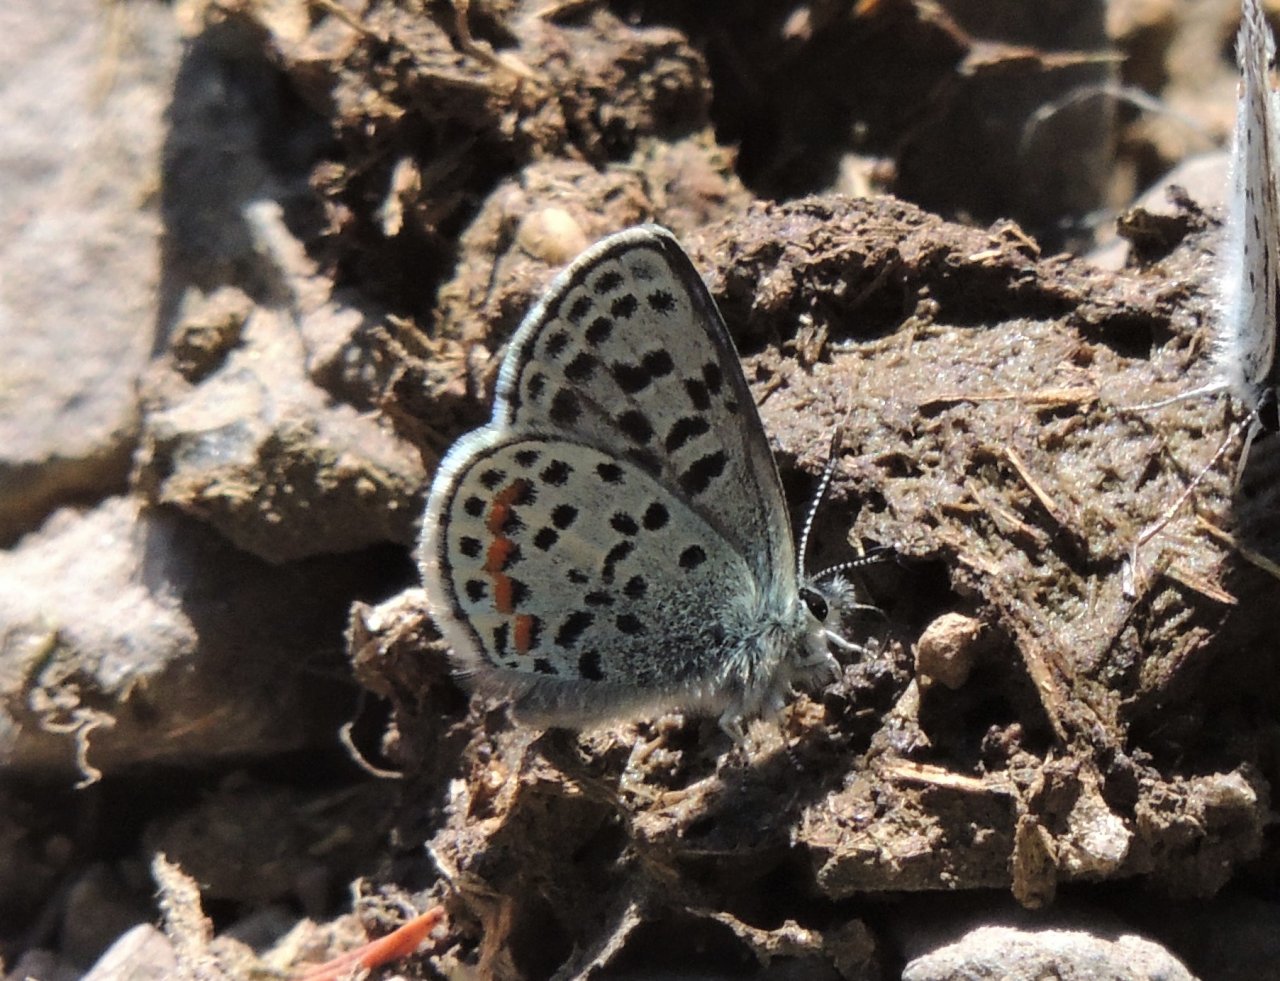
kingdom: Animalia
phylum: Arthropoda
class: Insecta
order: Lepidoptera
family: Lycaenidae
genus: Euphilotes
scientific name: Euphilotes battoides
